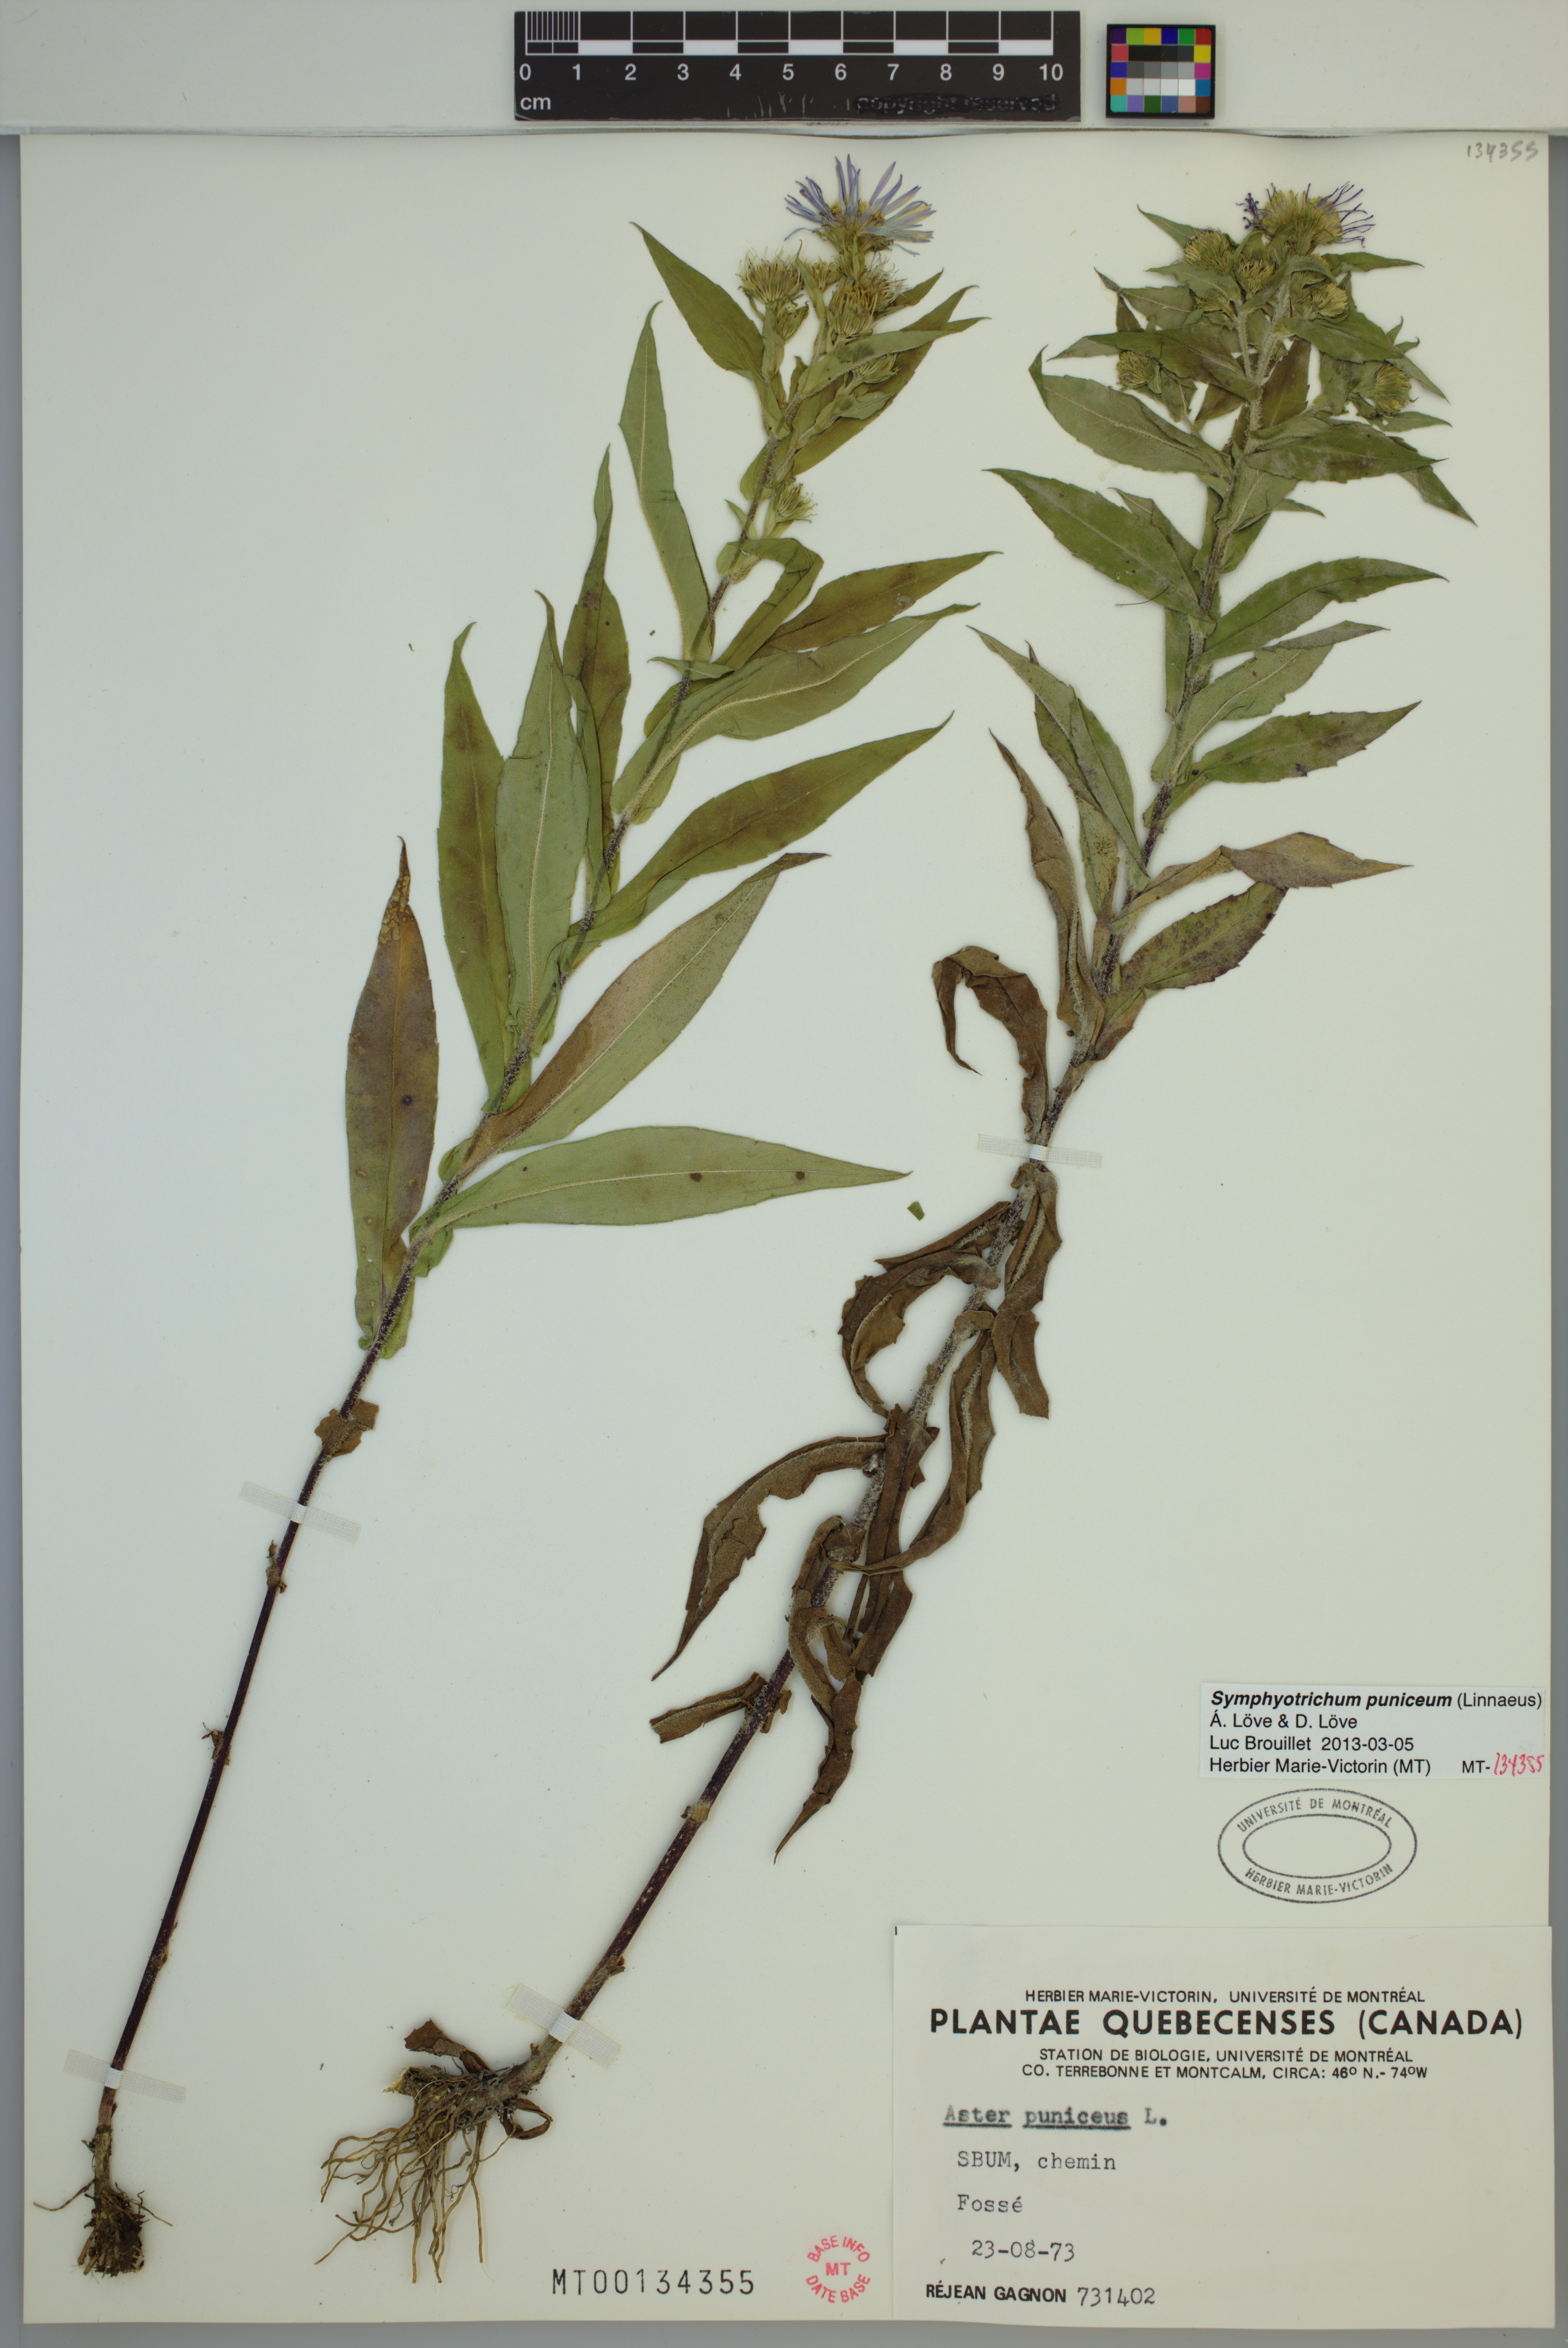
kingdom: Plantae
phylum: Tracheophyta
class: Magnoliopsida
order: Asterales
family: Asteraceae
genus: Symphyotrichum
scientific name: Symphyotrichum puniceum
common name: Bog aster
